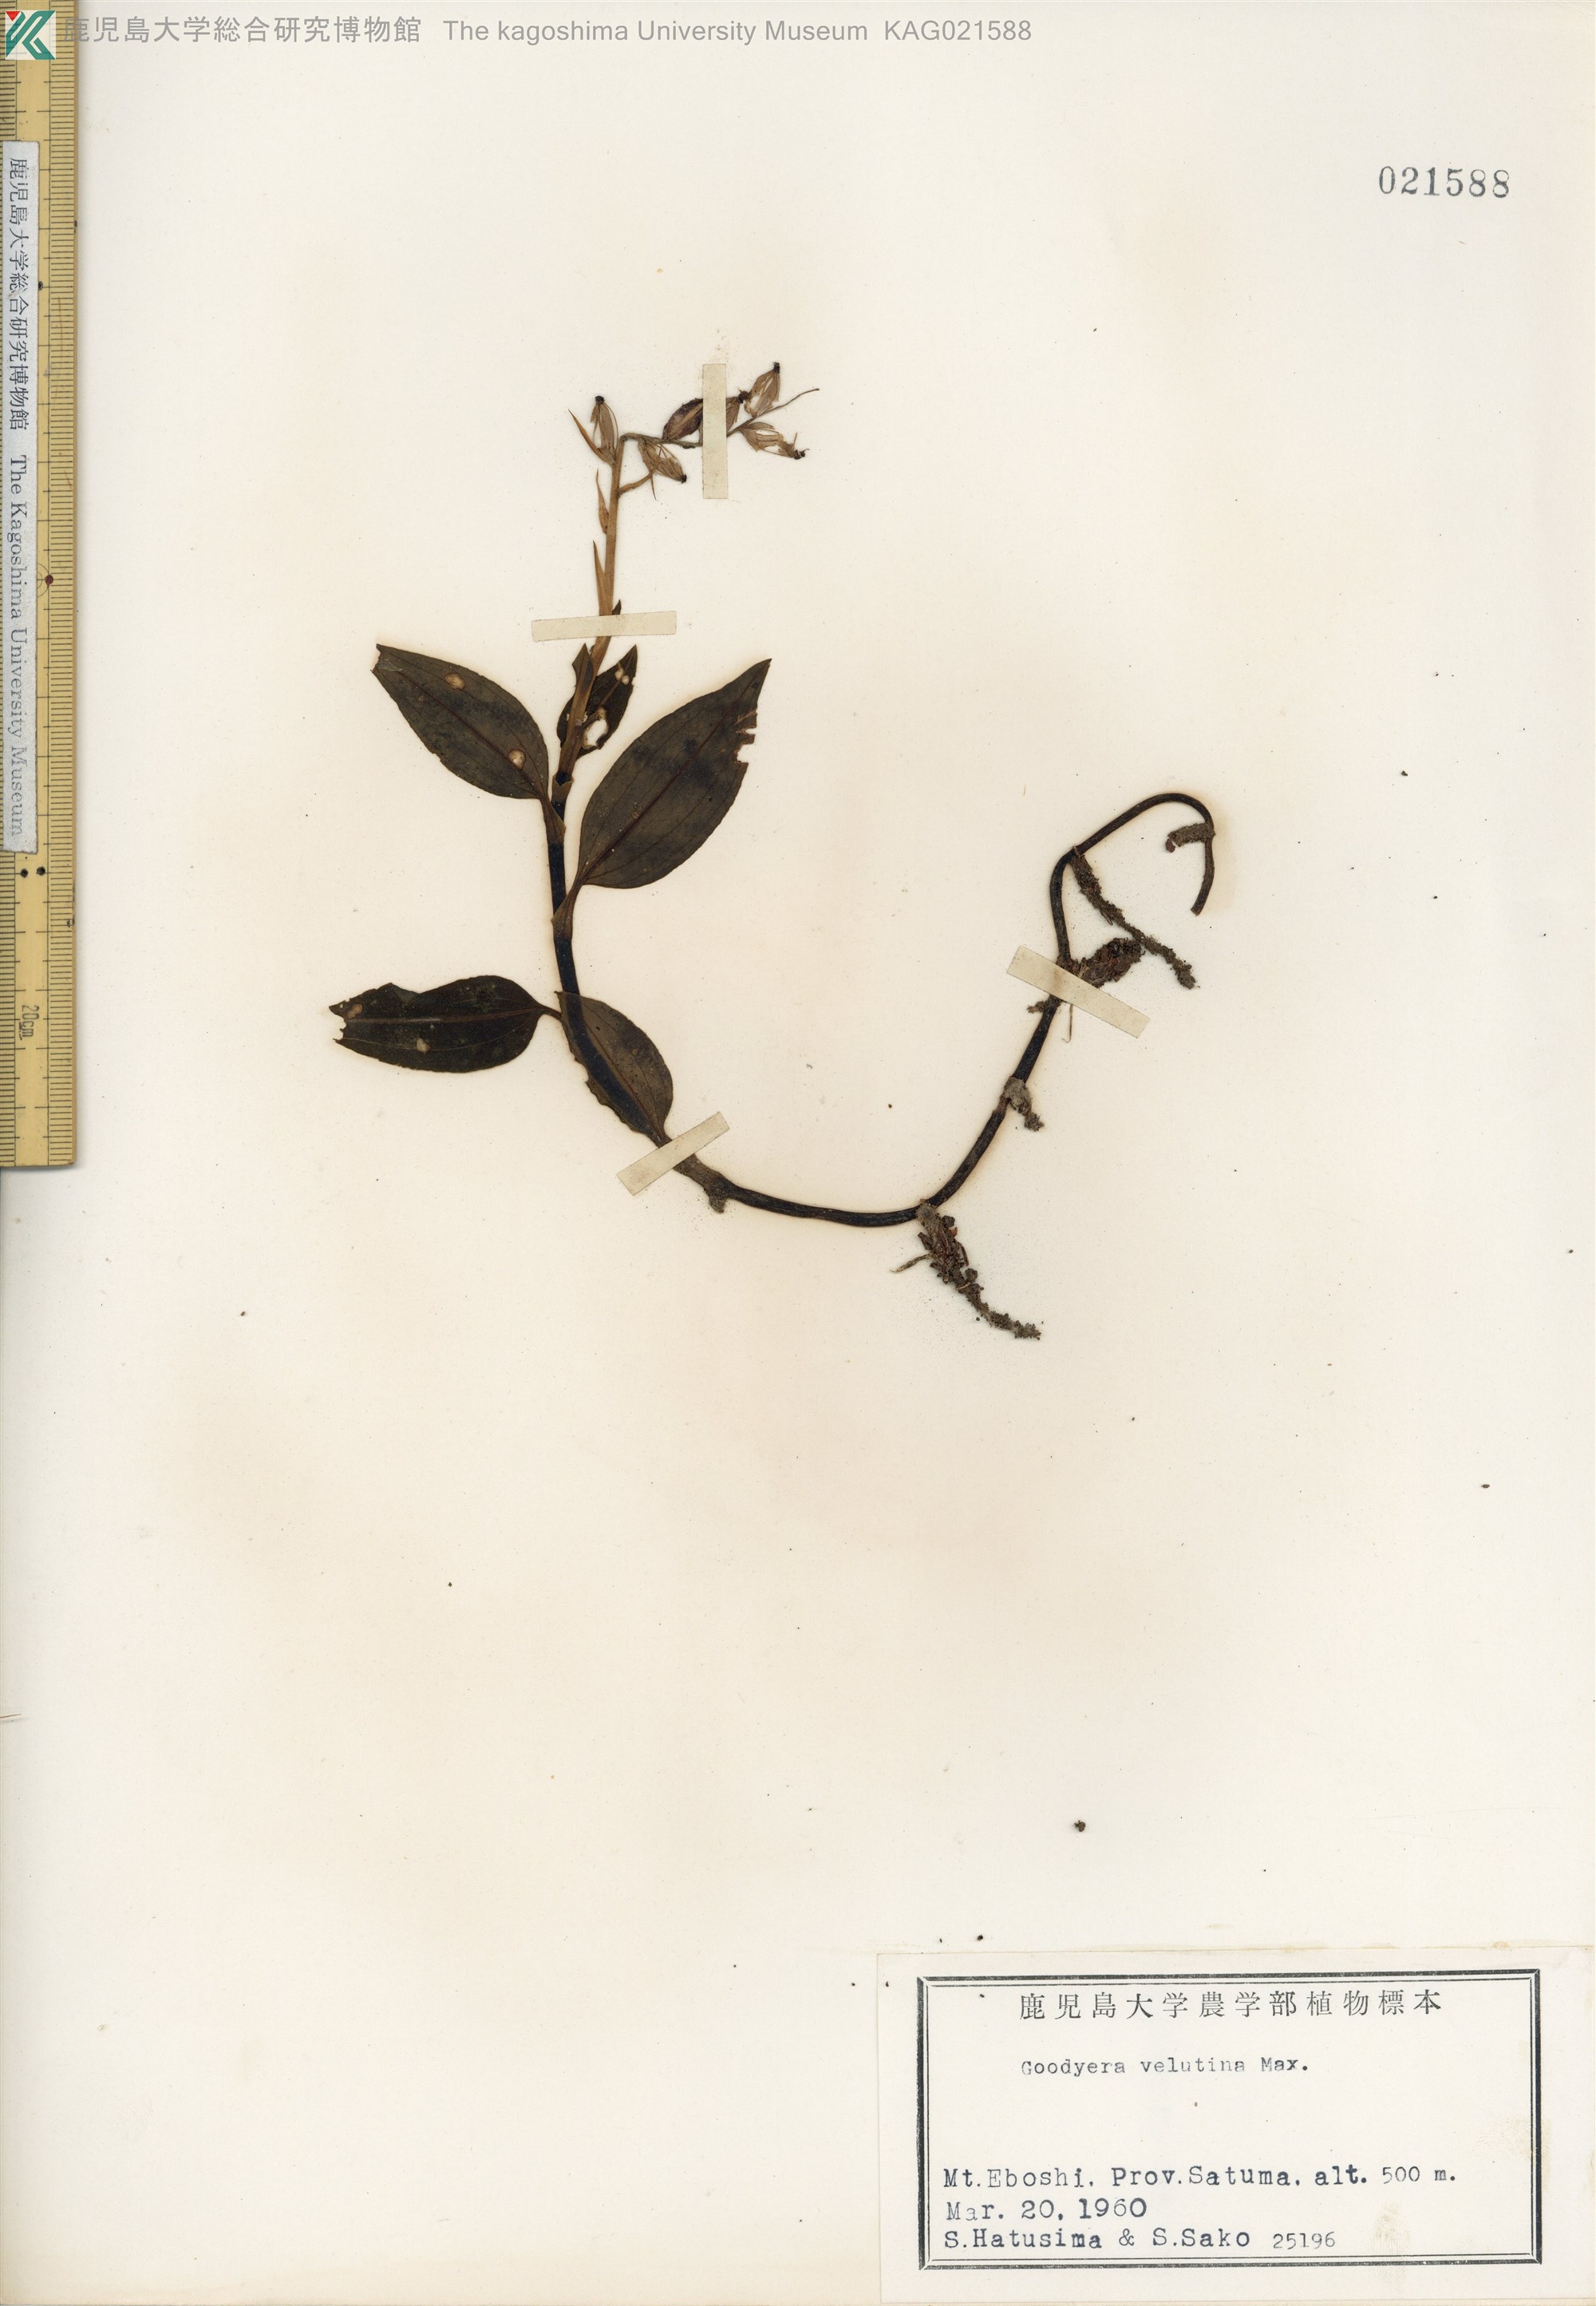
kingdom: Plantae
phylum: Tracheophyta
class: Liliopsida
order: Asparagales
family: Orchidaceae
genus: Goodyera
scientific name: Goodyera velutina
